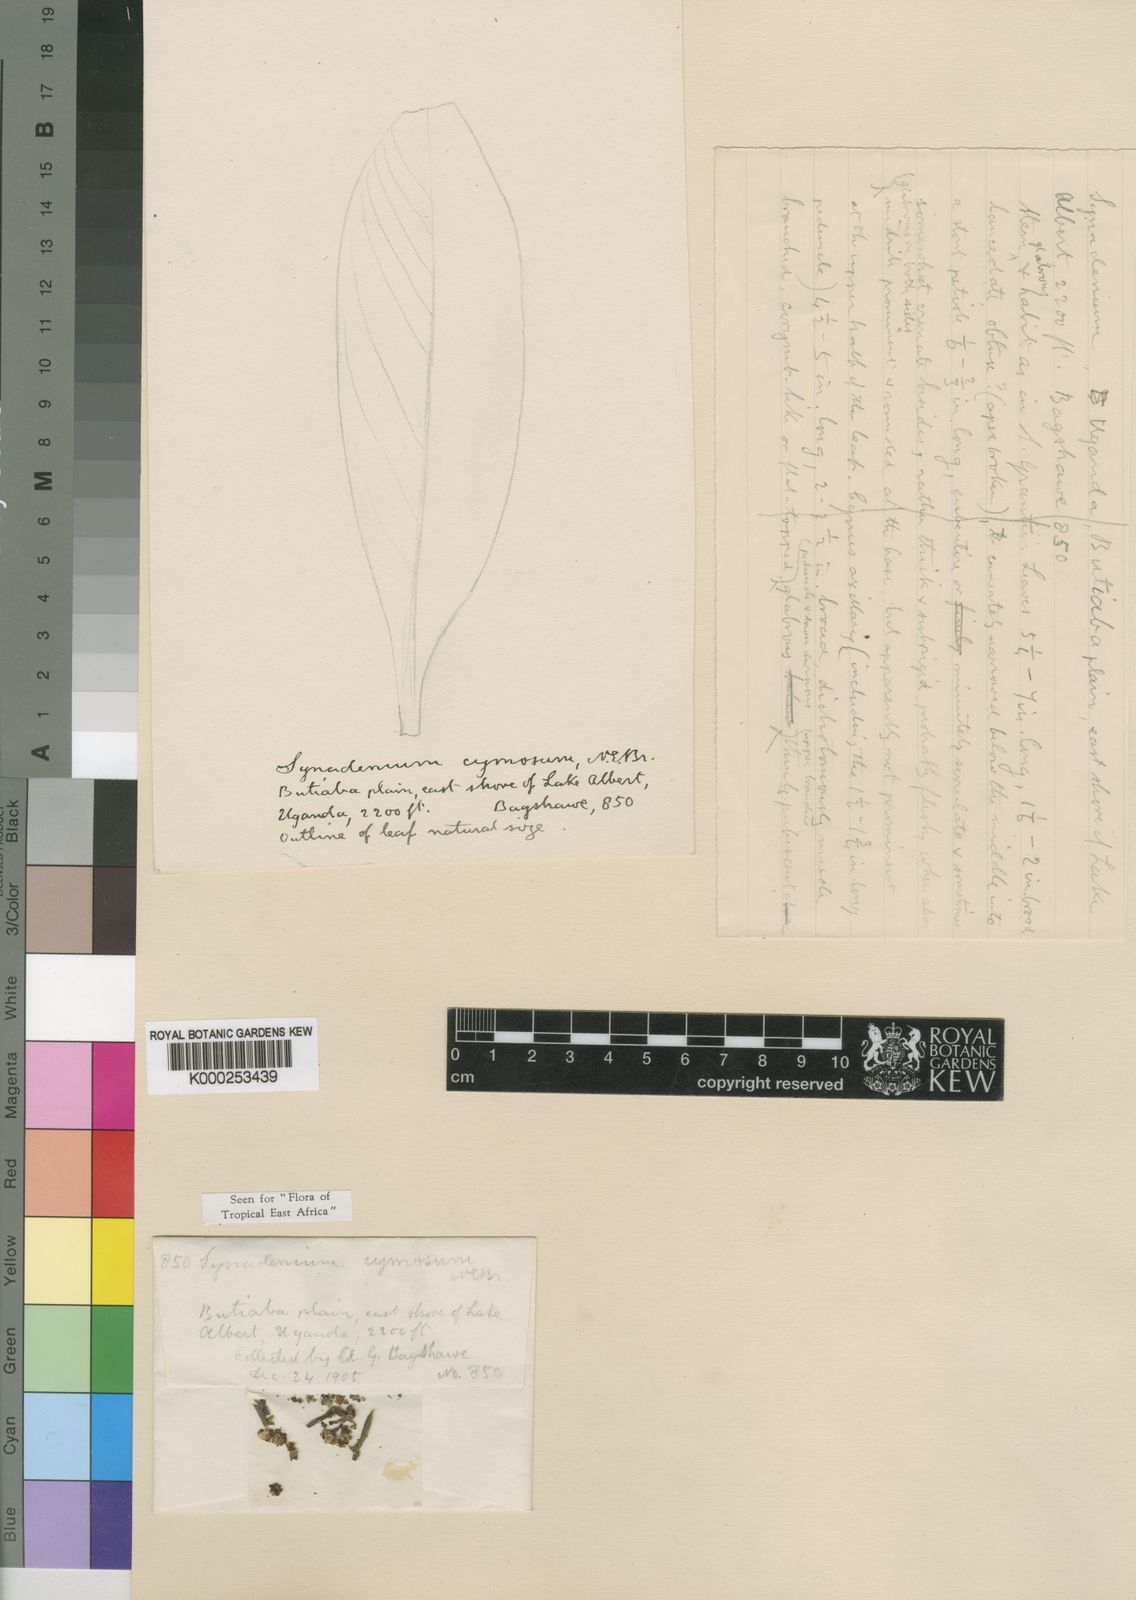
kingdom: Plantae
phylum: Tracheophyta
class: Magnoliopsida
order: Malpighiales
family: Euphorbiaceae
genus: Euphorbia
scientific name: Euphorbia neocymosa
